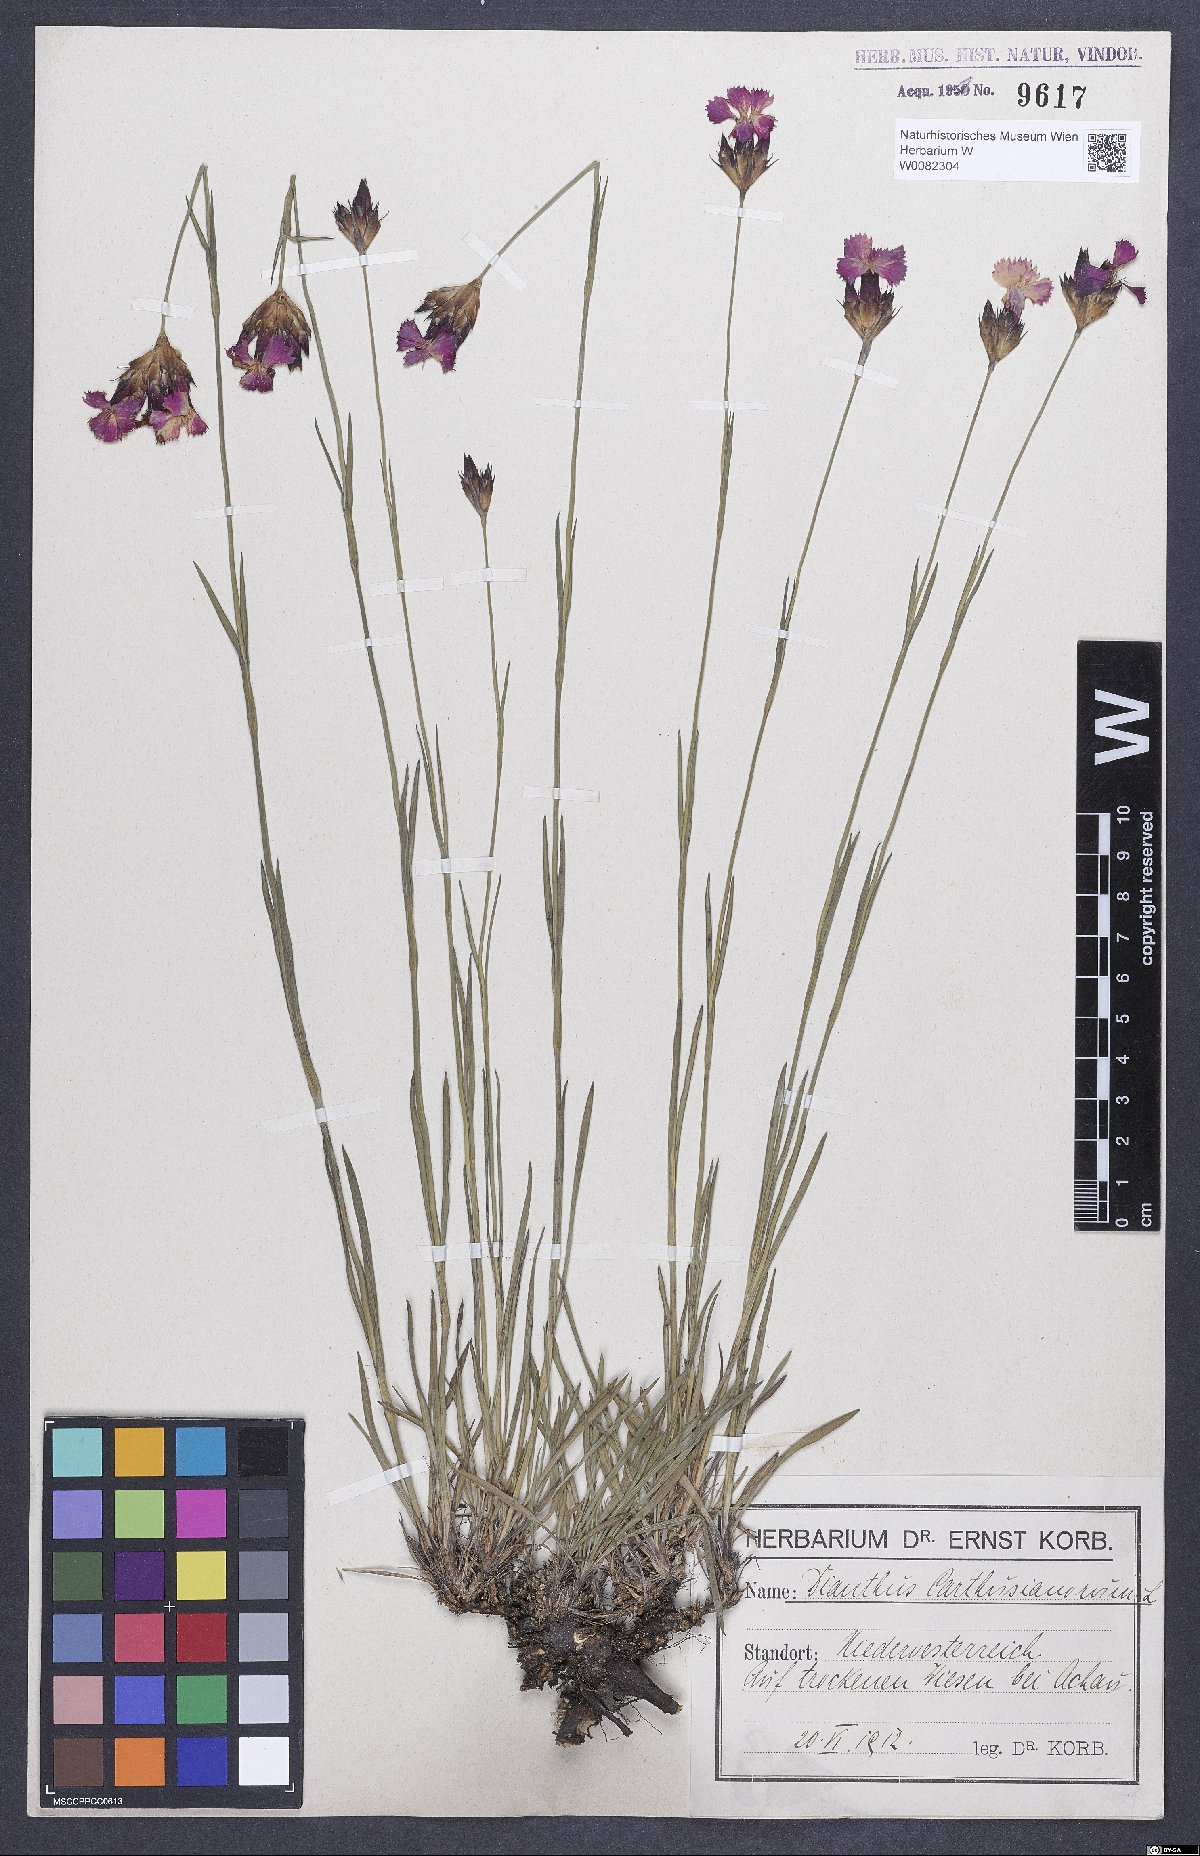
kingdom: Plantae
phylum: Tracheophyta
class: Magnoliopsida
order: Caryophyllales
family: Caryophyllaceae
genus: Dianthus
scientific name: Dianthus carthusianorum
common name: Carthusian pink
